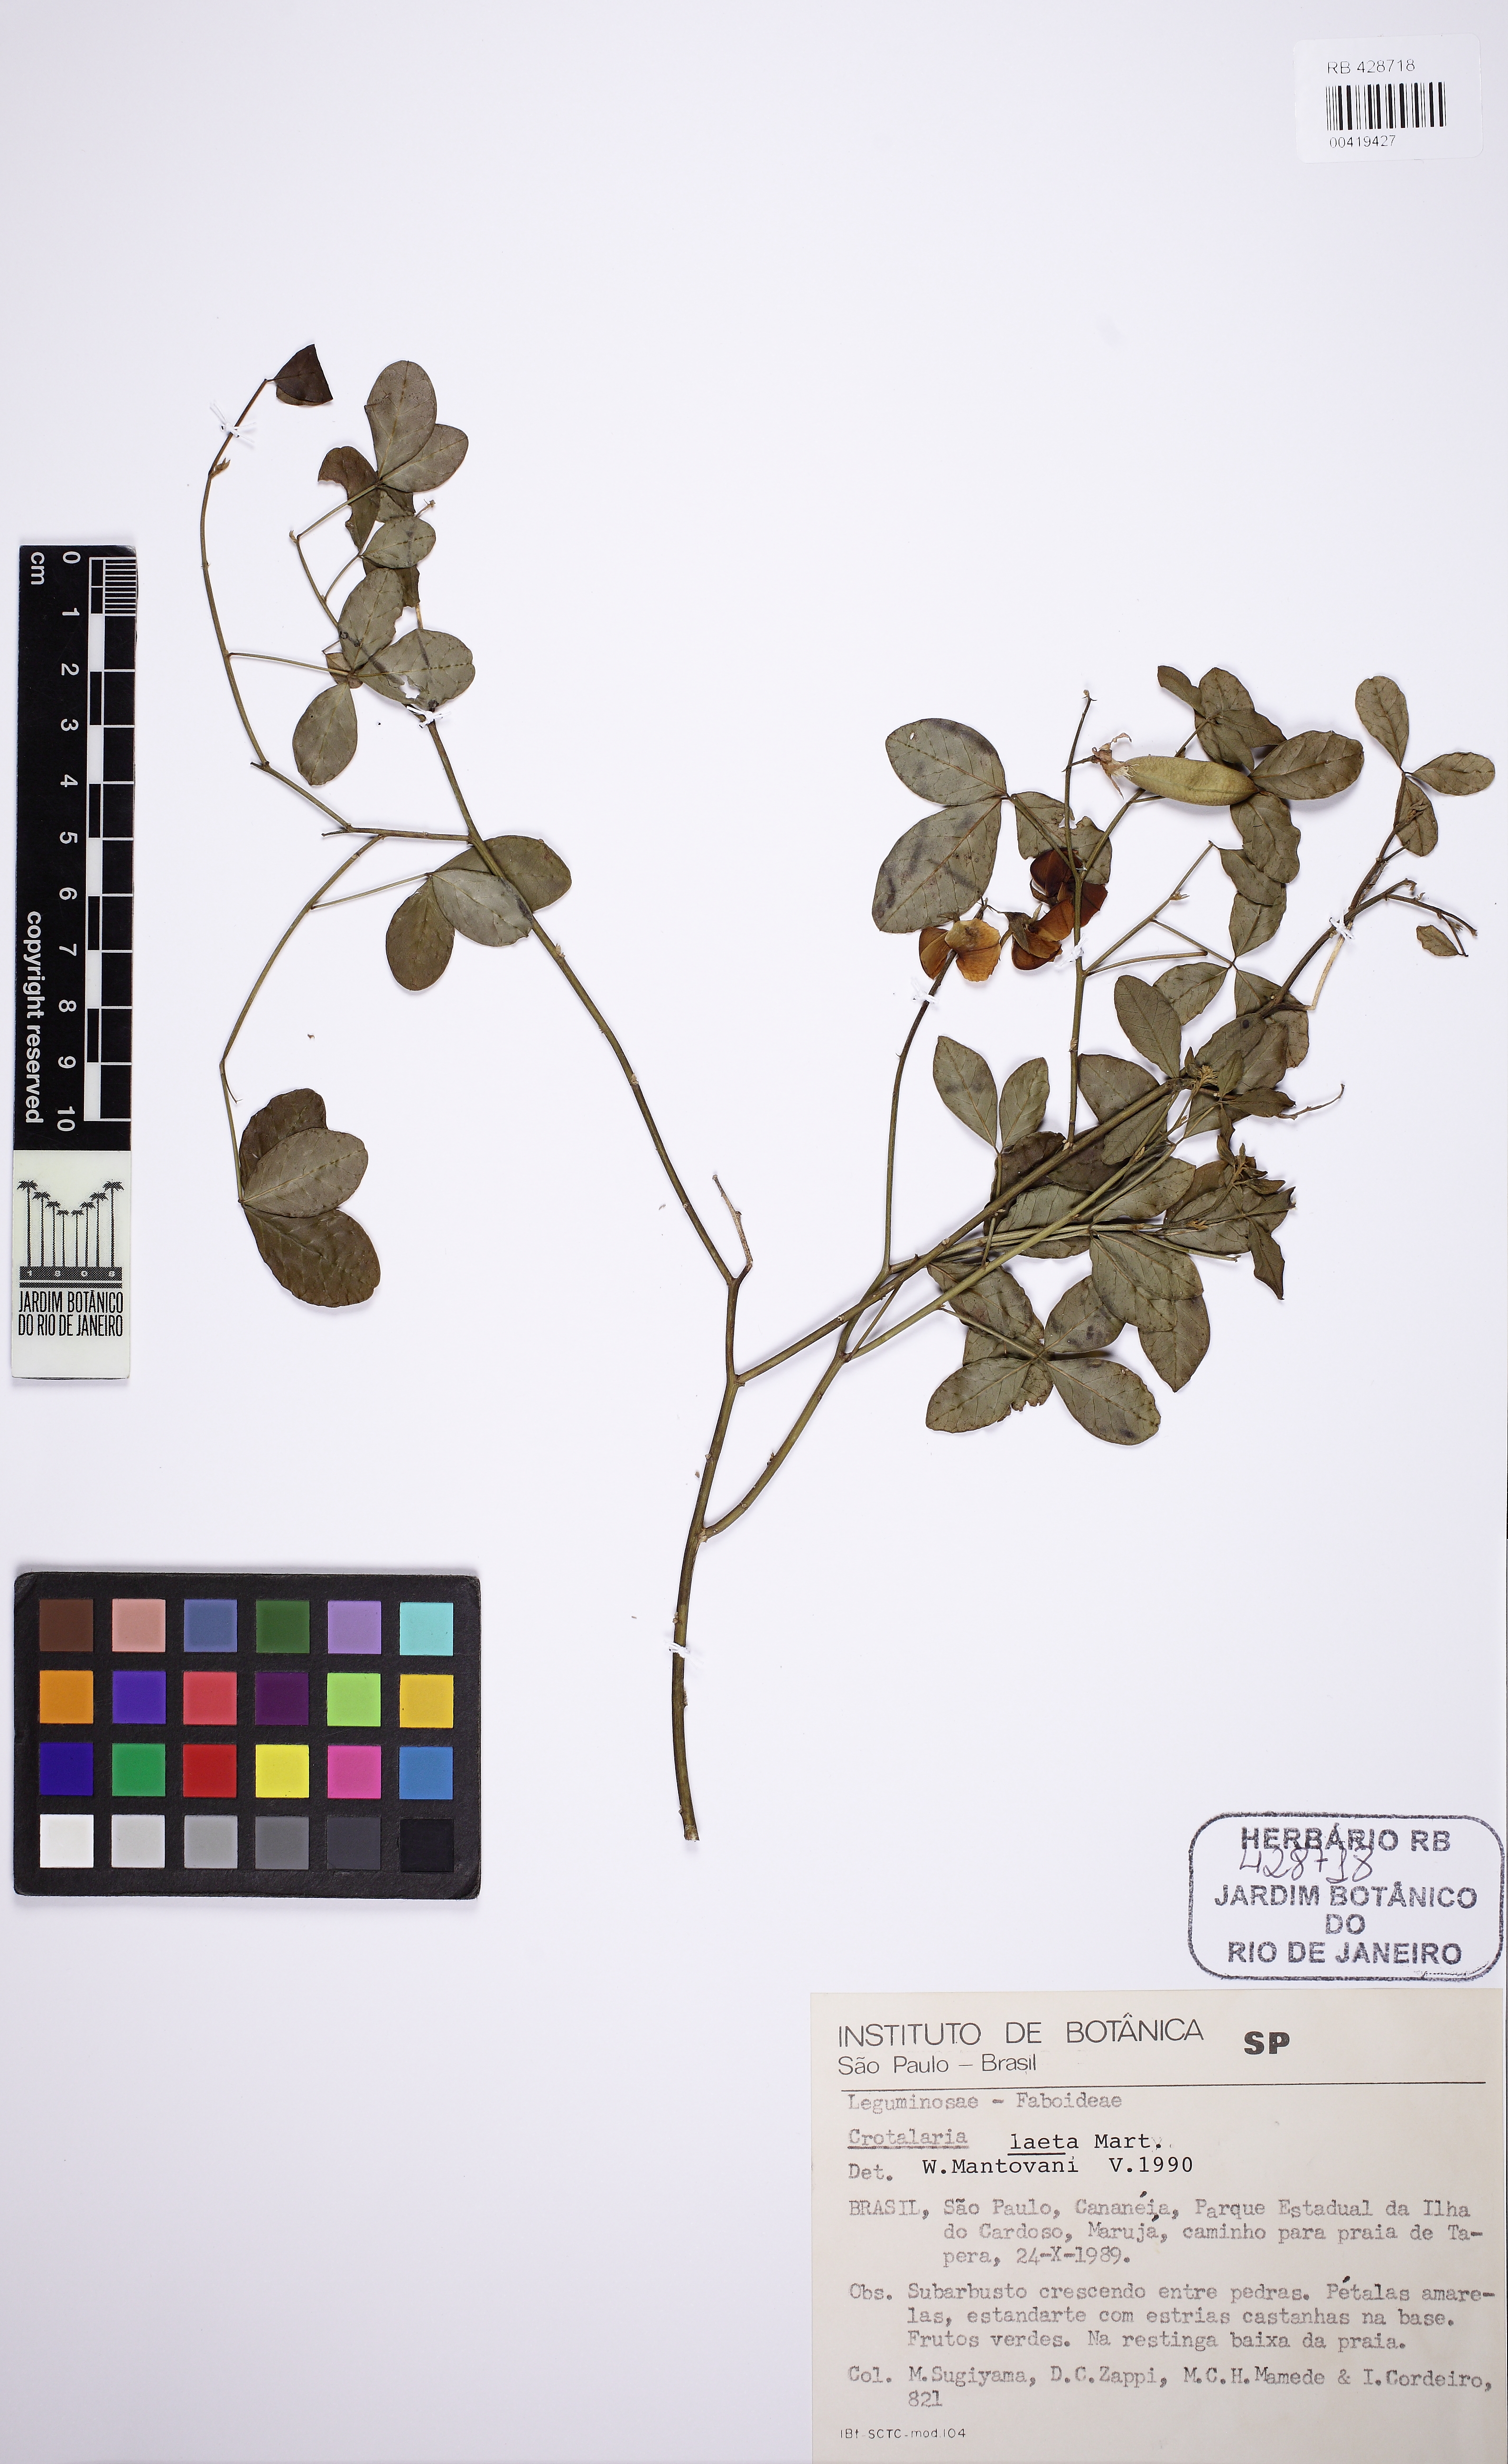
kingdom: Plantae
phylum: Tracheophyta
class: Magnoliopsida
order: Fabales
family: Fabaceae
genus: Crotalaria
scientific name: Crotalaria laeta
